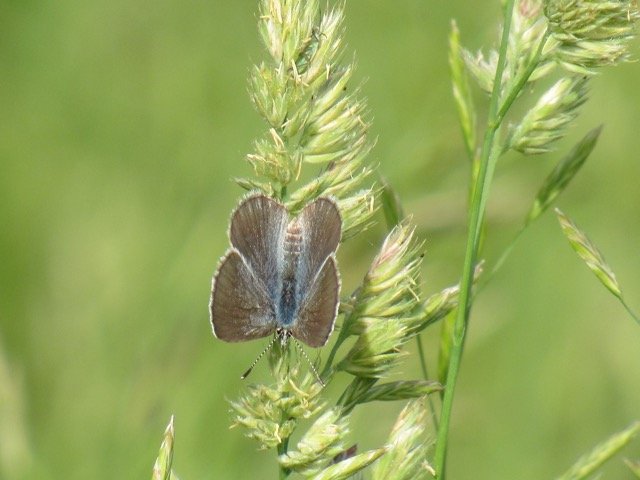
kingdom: Animalia
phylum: Arthropoda
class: Insecta
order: Lepidoptera
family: Lycaenidae
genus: Elkalyce
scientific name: Elkalyce comyntas
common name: Eastern Tailed-Blue
